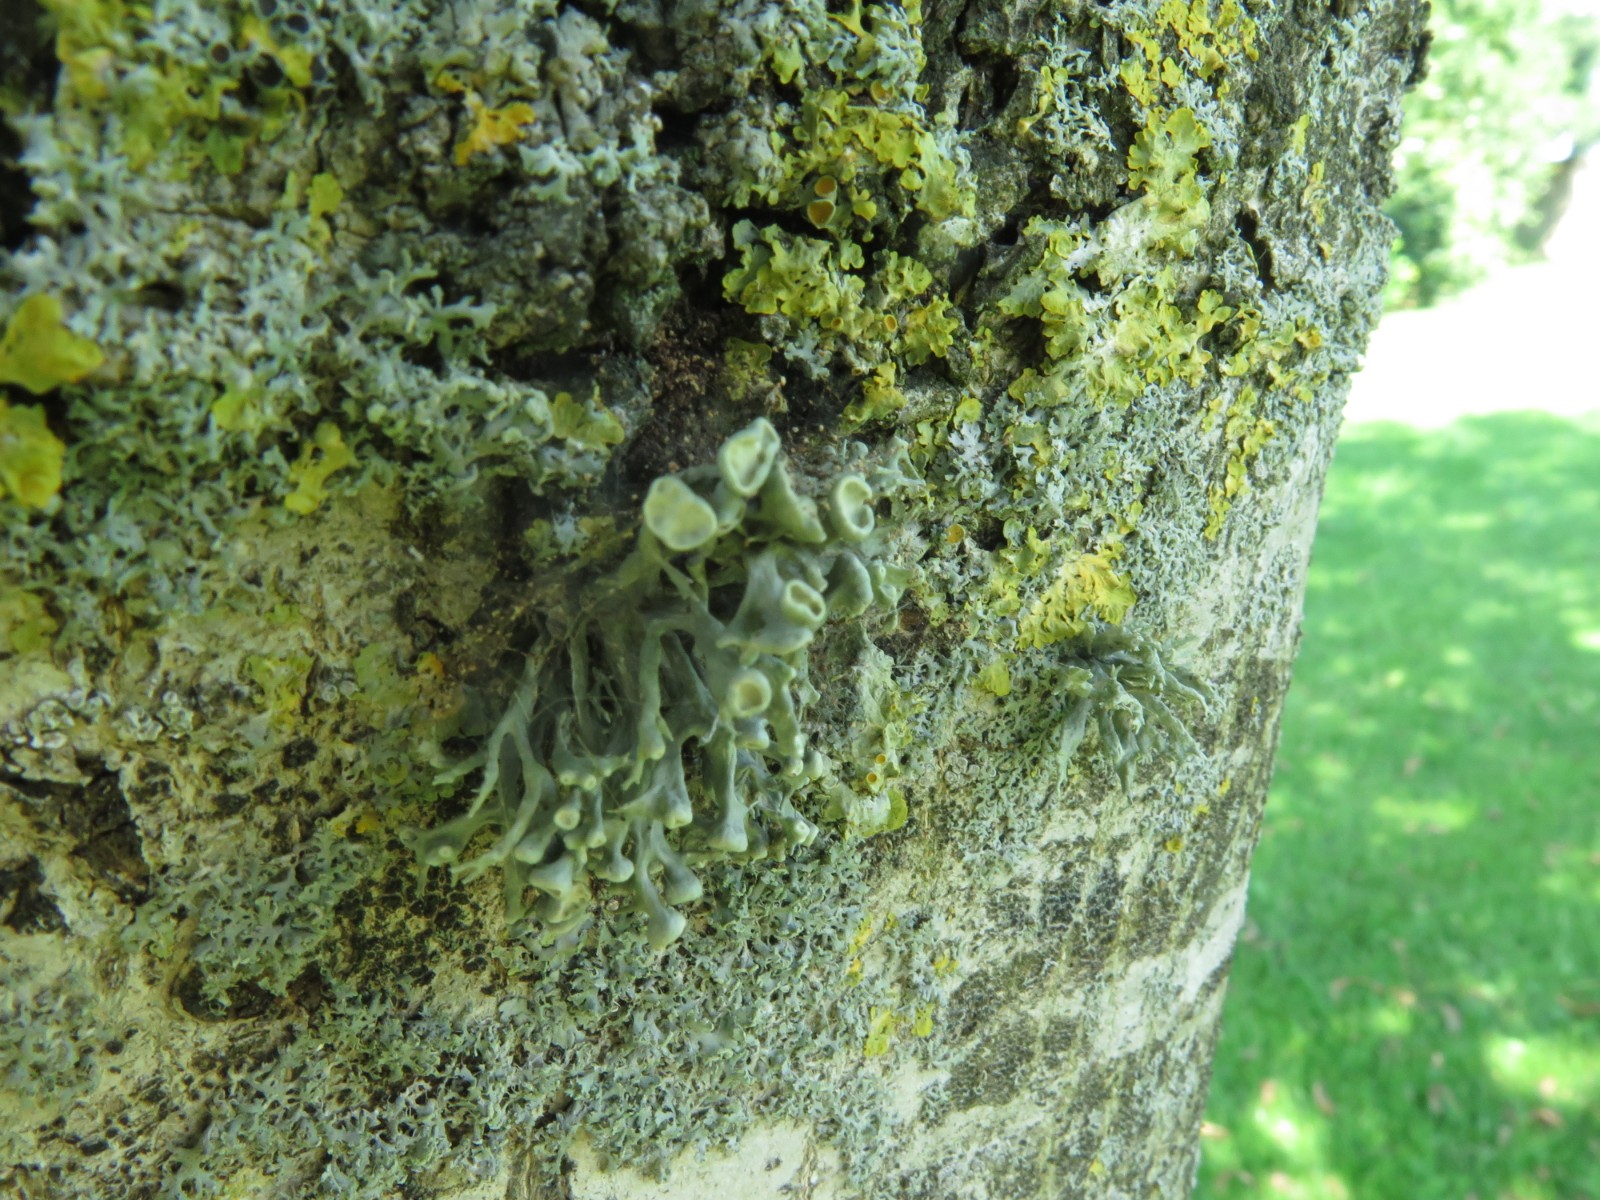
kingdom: Fungi
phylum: Ascomycota
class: Lecanoromycetes
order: Lecanorales
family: Ramalinaceae
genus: Ramalina
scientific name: Ramalina fastigiata
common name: tue-grenlav
